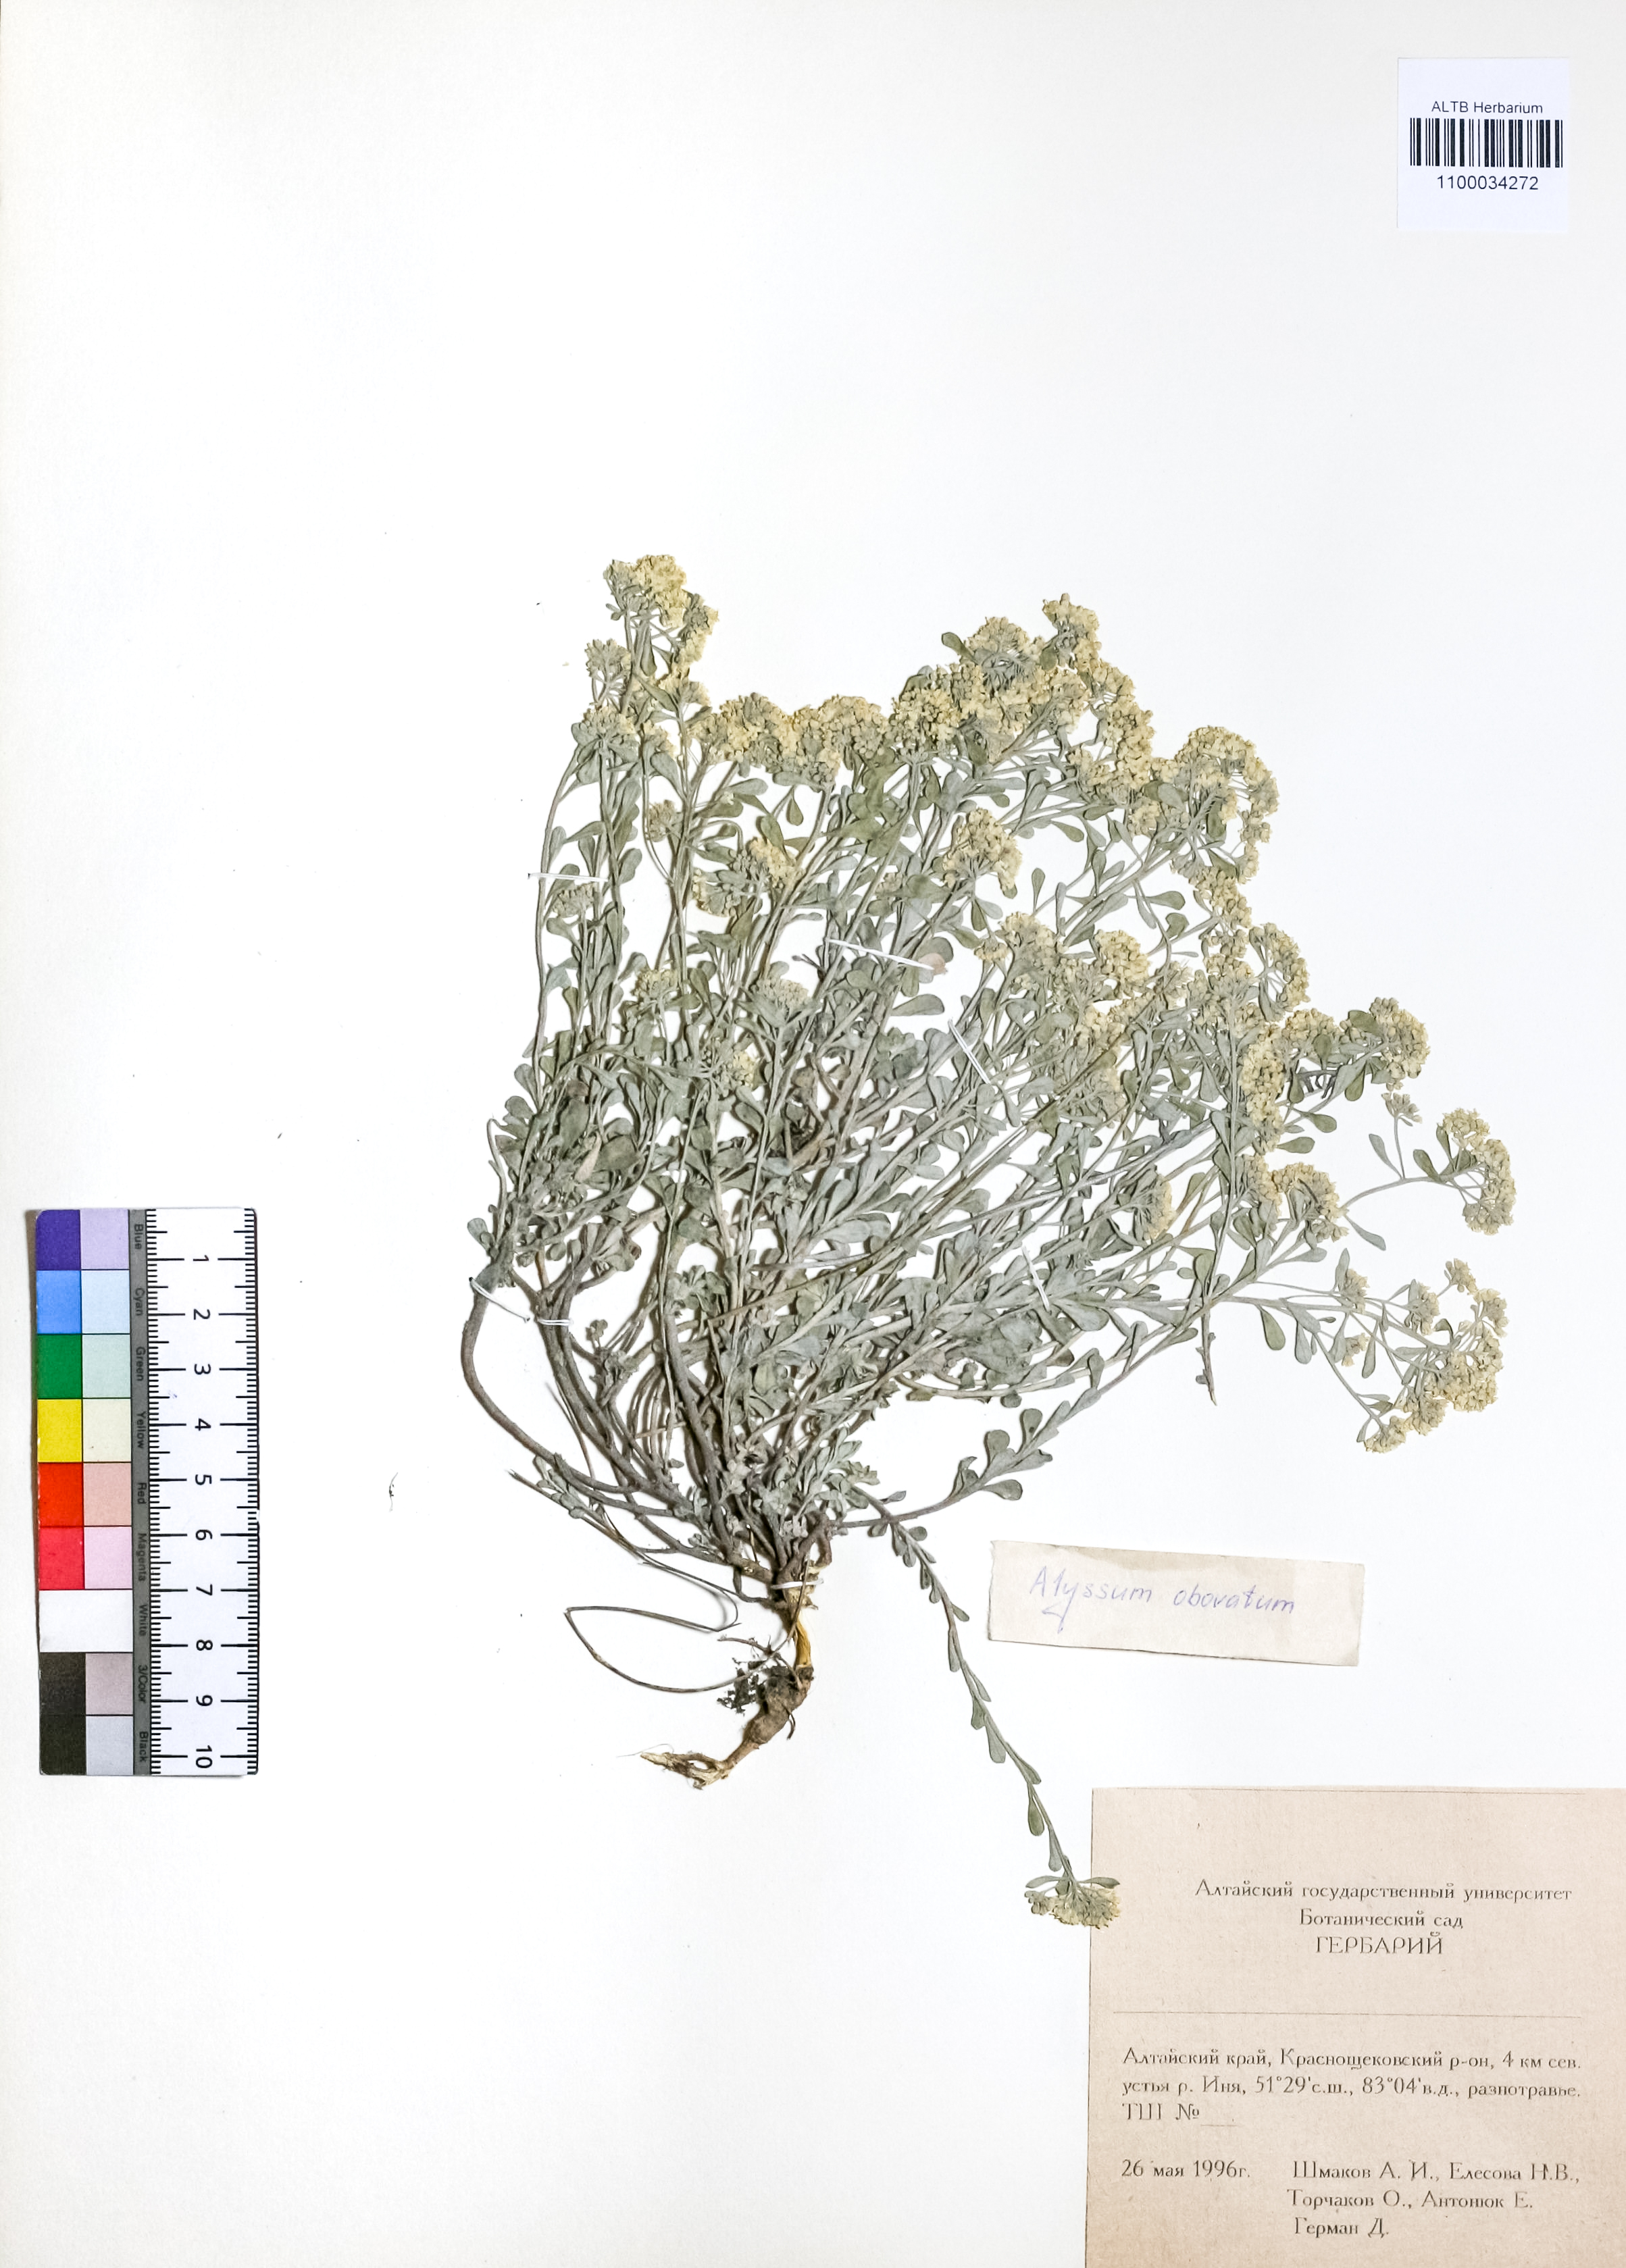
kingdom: Plantae
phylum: Tracheophyta
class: Magnoliopsida
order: Brassicales
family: Brassicaceae
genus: Odontarrhena
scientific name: Odontarrhena obovata
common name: American alyssum
